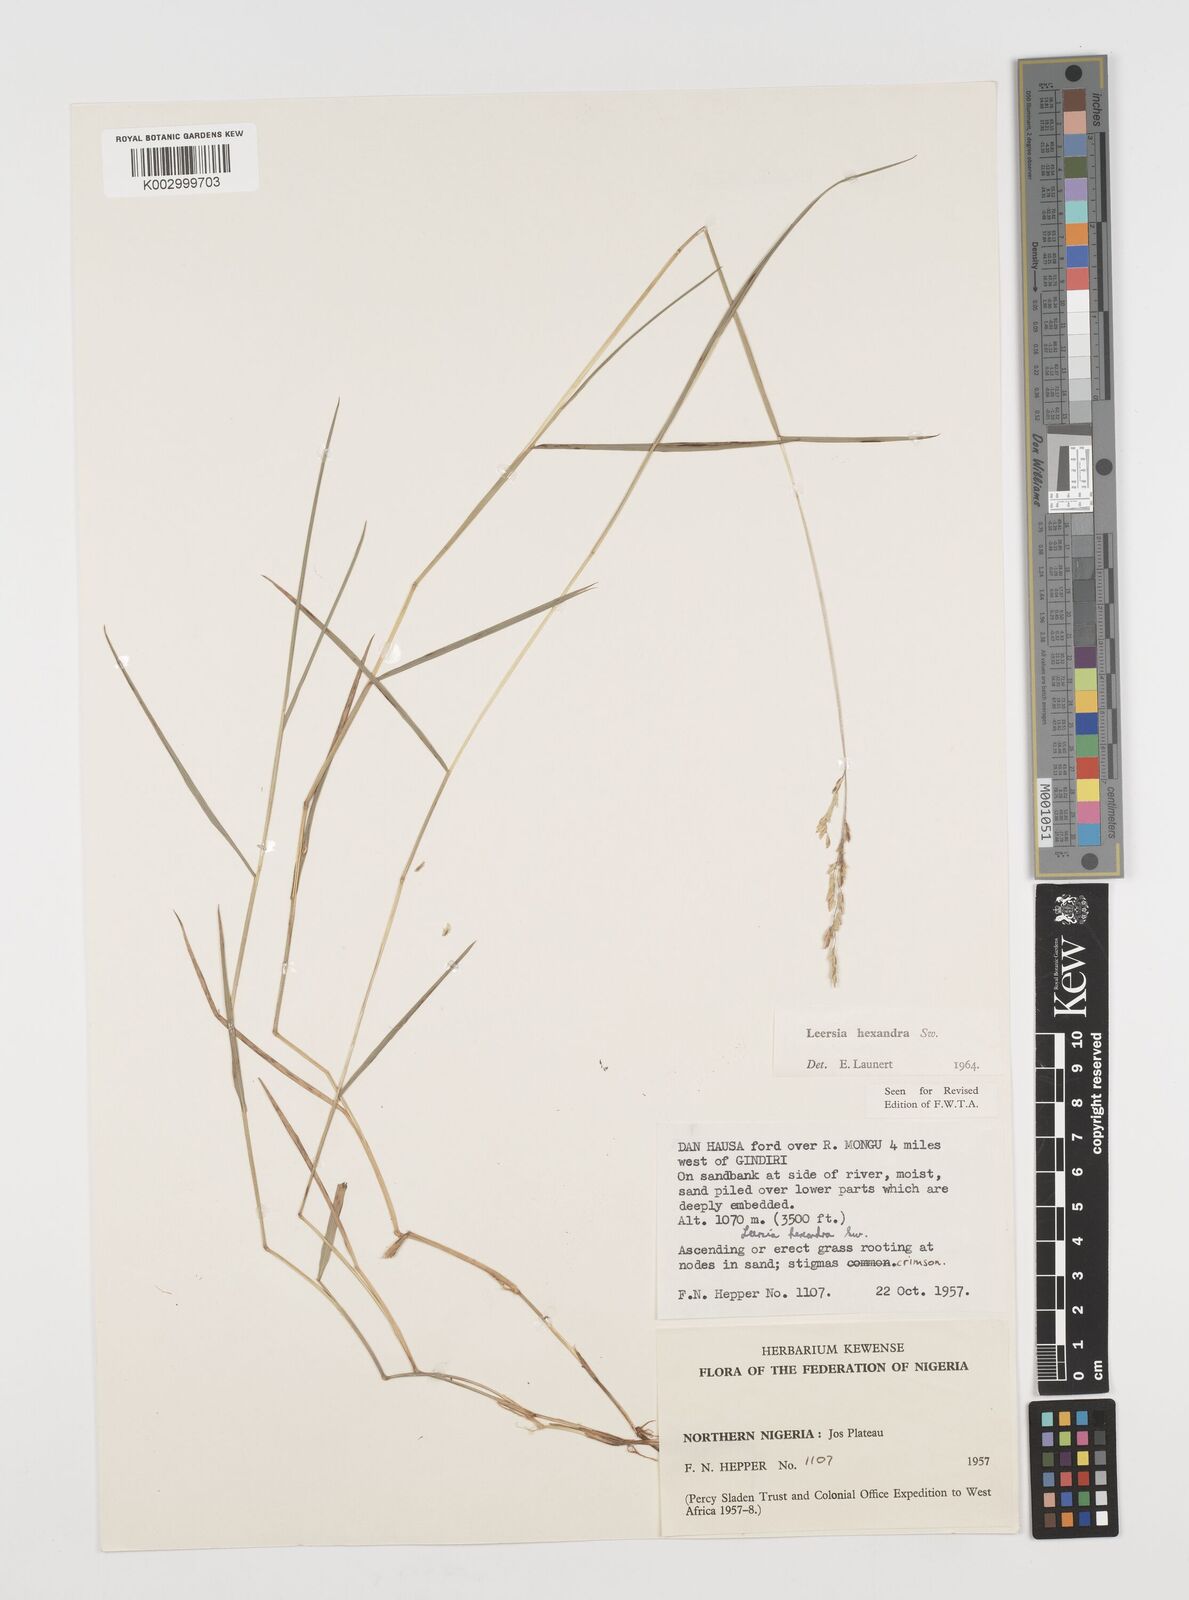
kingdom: Plantae
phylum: Tracheophyta
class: Liliopsida
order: Poales
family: Poaceae
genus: Leersia
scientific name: Leersia hexandra
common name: Southern cut grass
